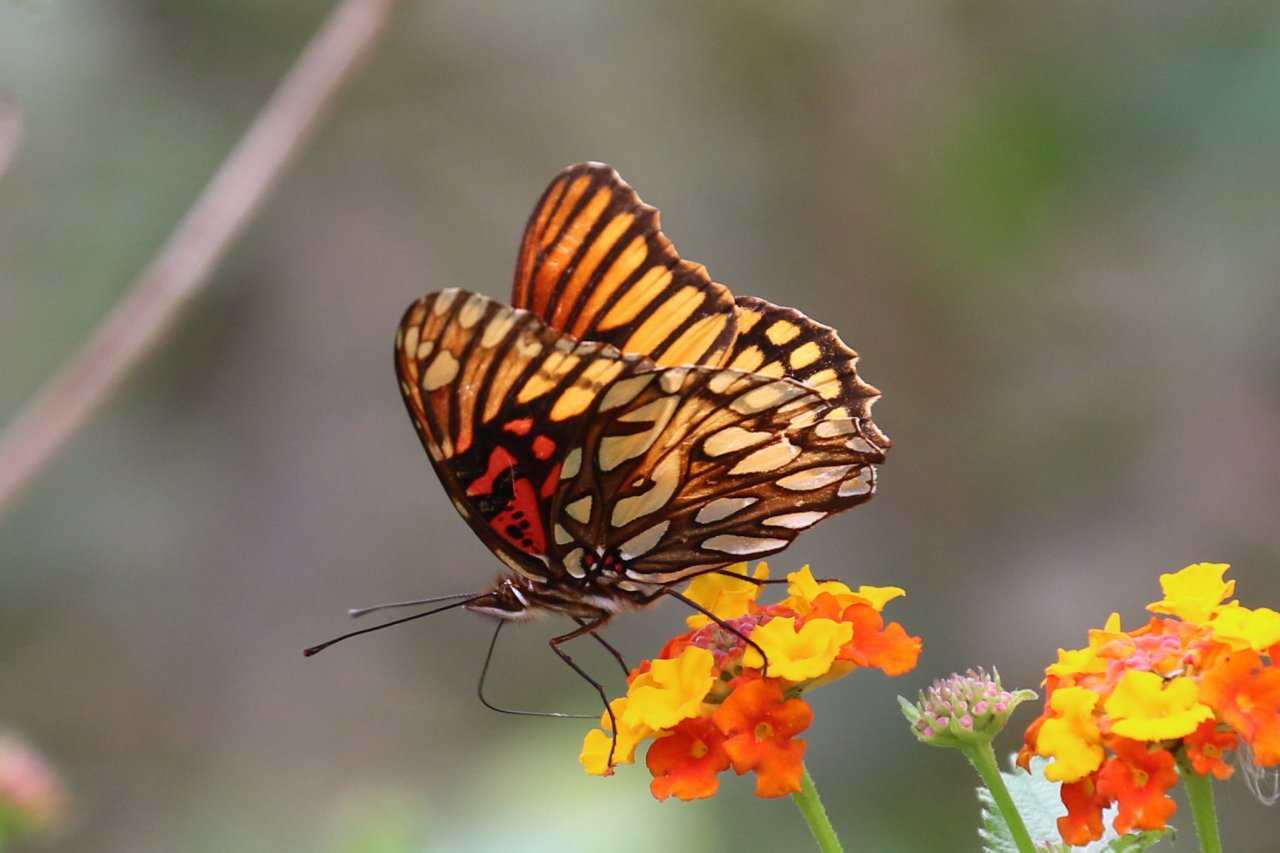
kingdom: Animalia
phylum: Arthropoda
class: Insecta
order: Lepidoptera
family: Nymphalidae
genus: Dione
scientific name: Dione moneta
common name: Mexican Silverspot
